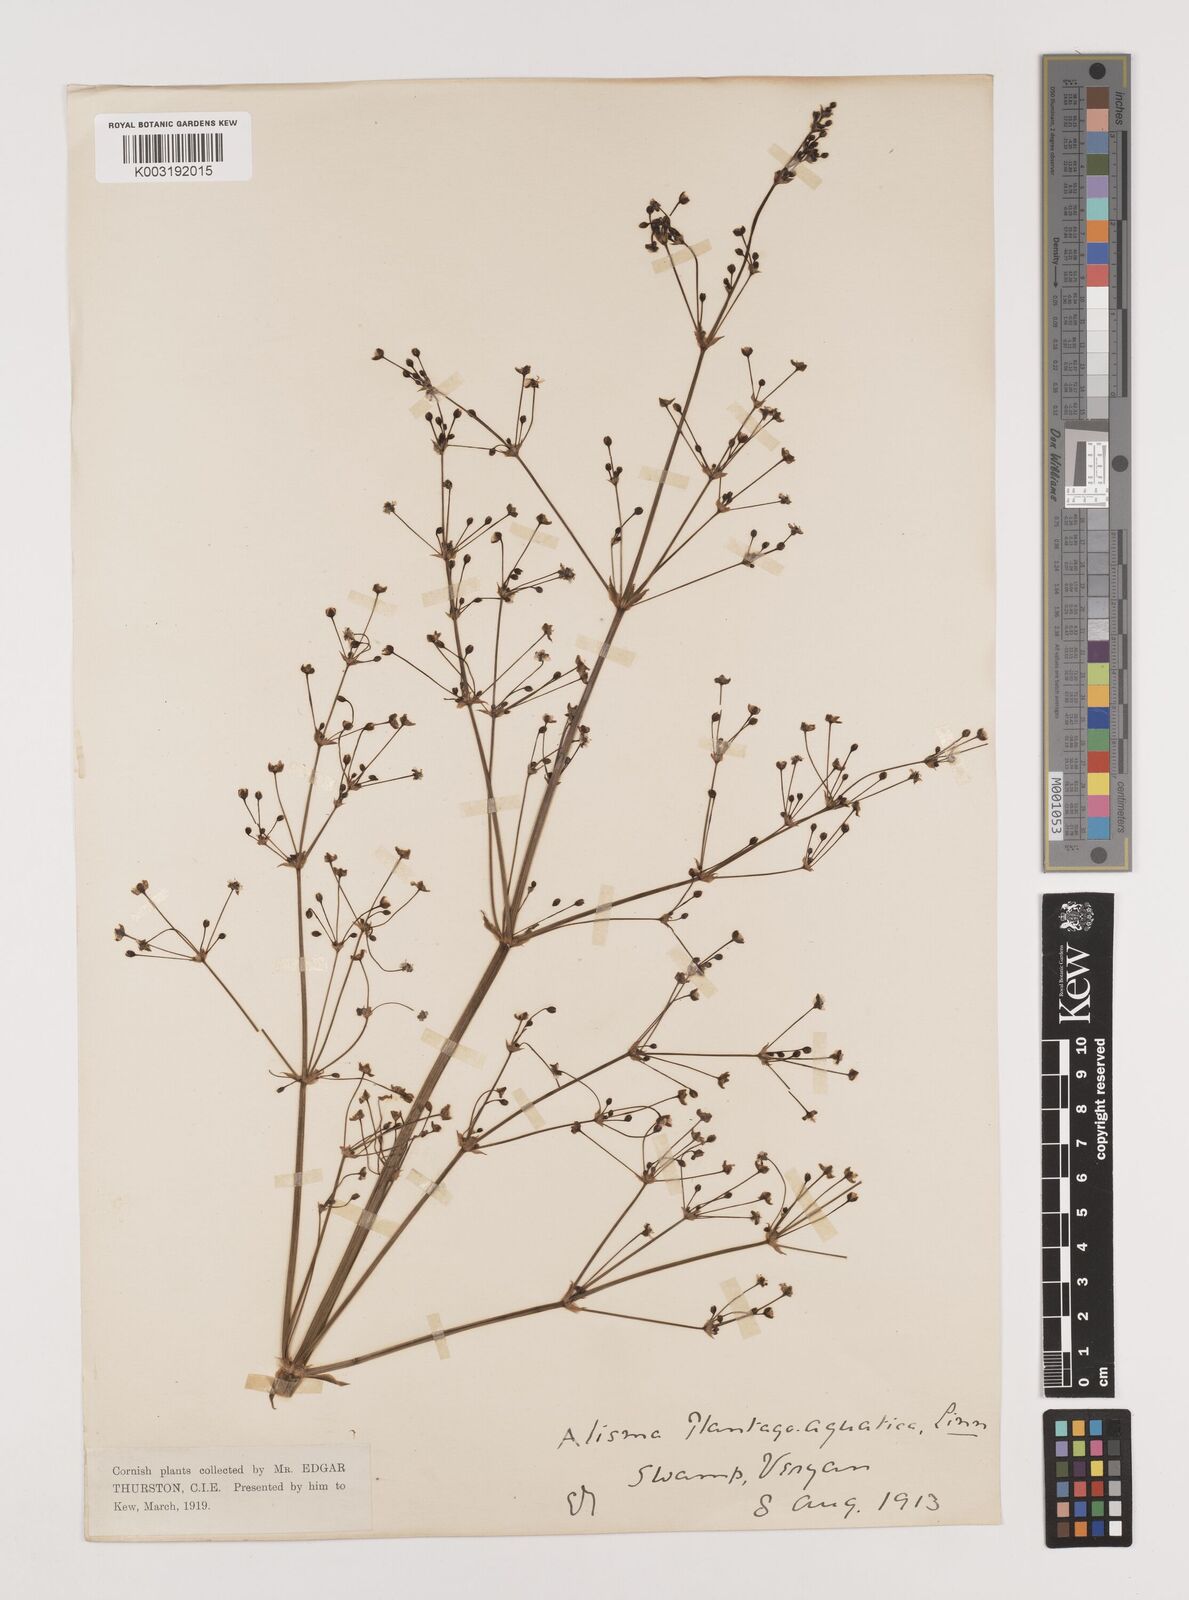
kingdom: Plantae
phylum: Tracheophyta
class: Liliopsida
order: Alismatales
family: Alismataceae
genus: Alisma
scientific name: Alisma plantago-aquatica
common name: Water-plantain
